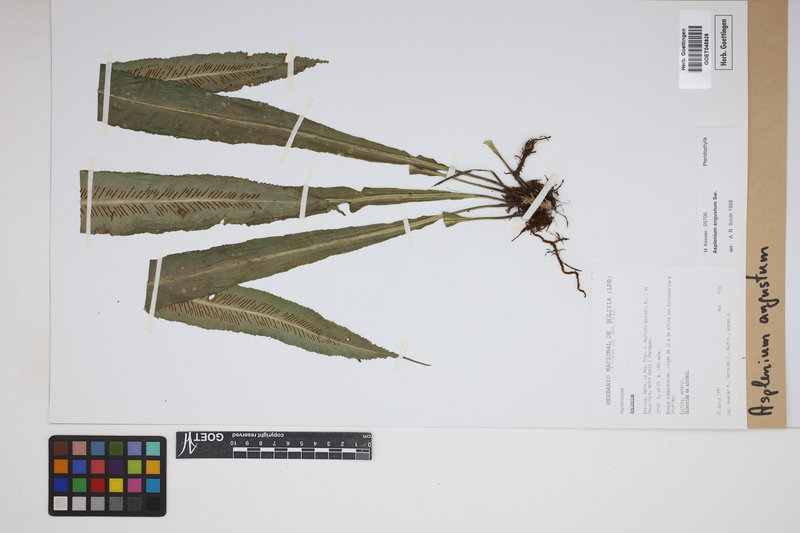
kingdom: Plantae
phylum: Tracheophyta
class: Polypodiopsida
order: Polypodiales
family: Aspleniaceae
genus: Asplenium
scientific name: Asplenium angustum
